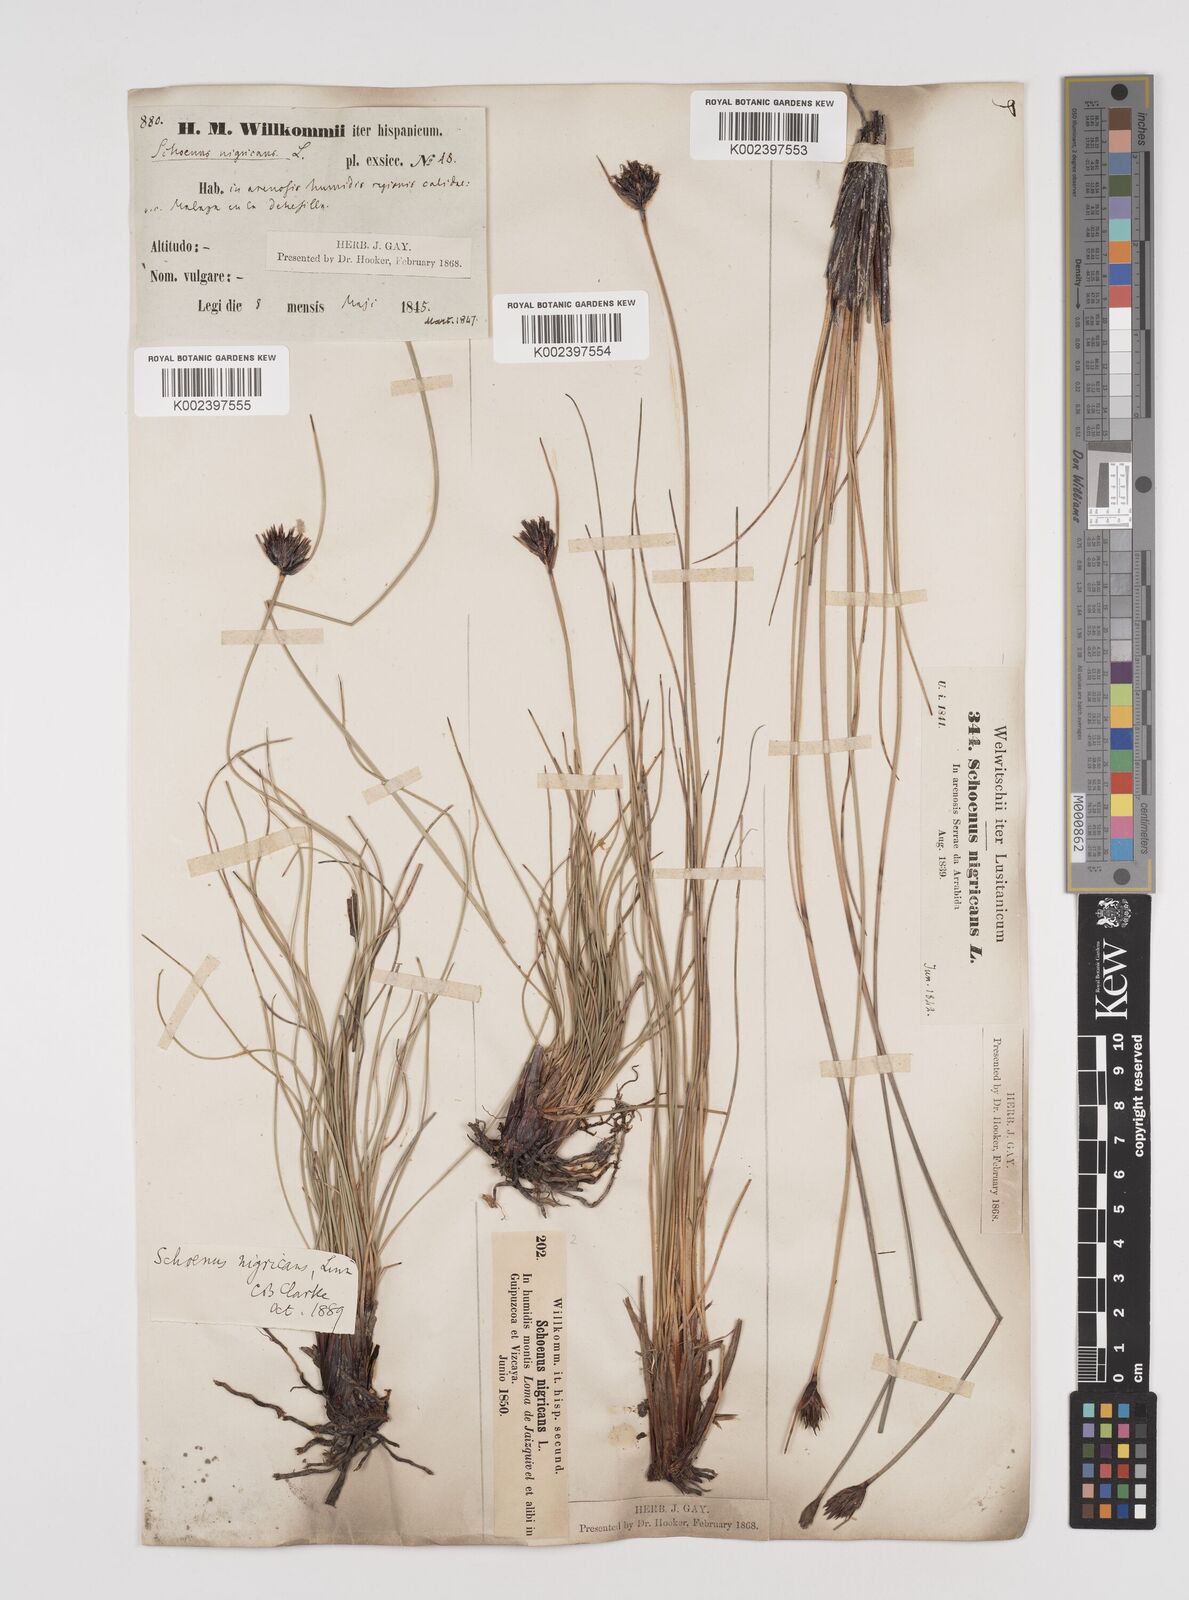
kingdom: Plantae
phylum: Tracheophyta
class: Liliopsida
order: Poales
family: Cyperaceae
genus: Schoenus
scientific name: Schoenus nigricans
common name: Black bog-rush
